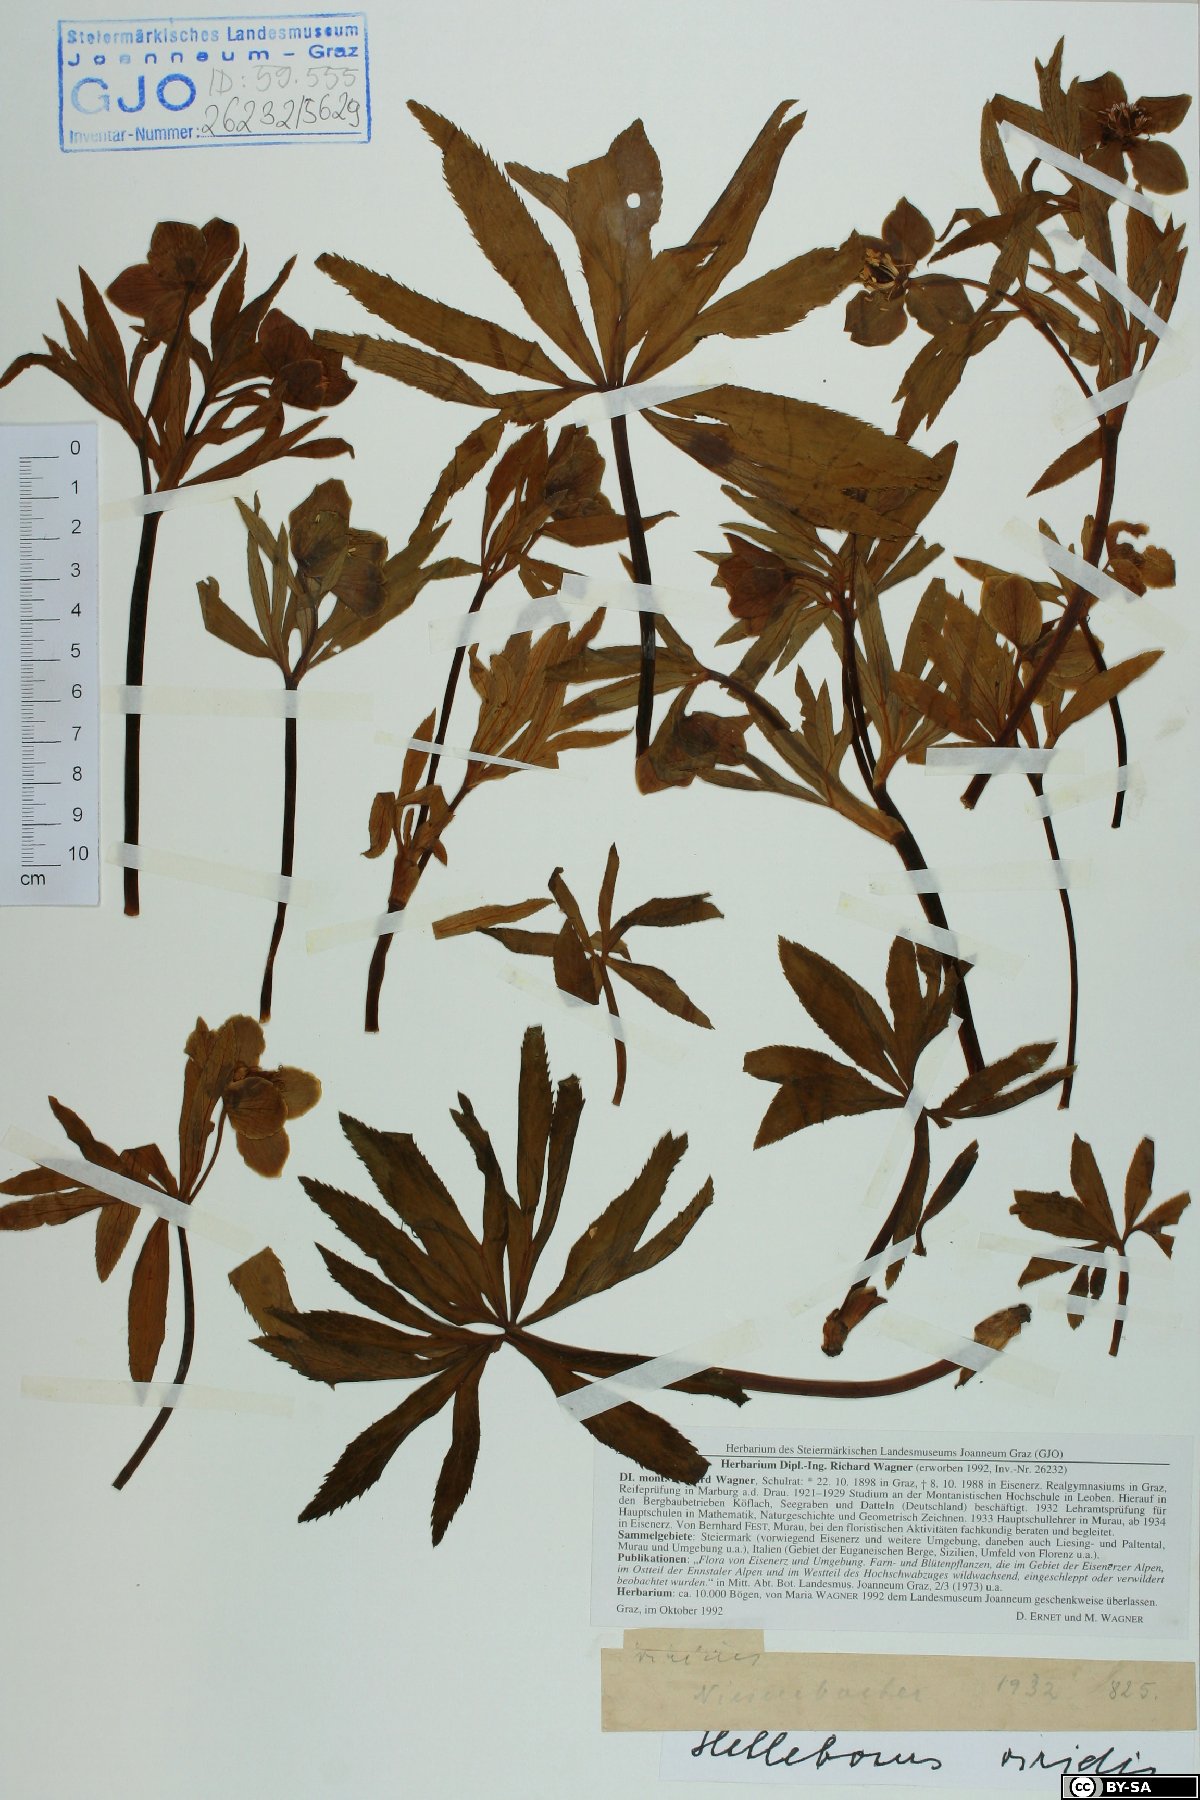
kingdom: Plantae
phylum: Tracheophyta
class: Magnoliopsida
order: Ranunculales
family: Ranunculaceae
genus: Helleborus
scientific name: Helleborus dumetorum
